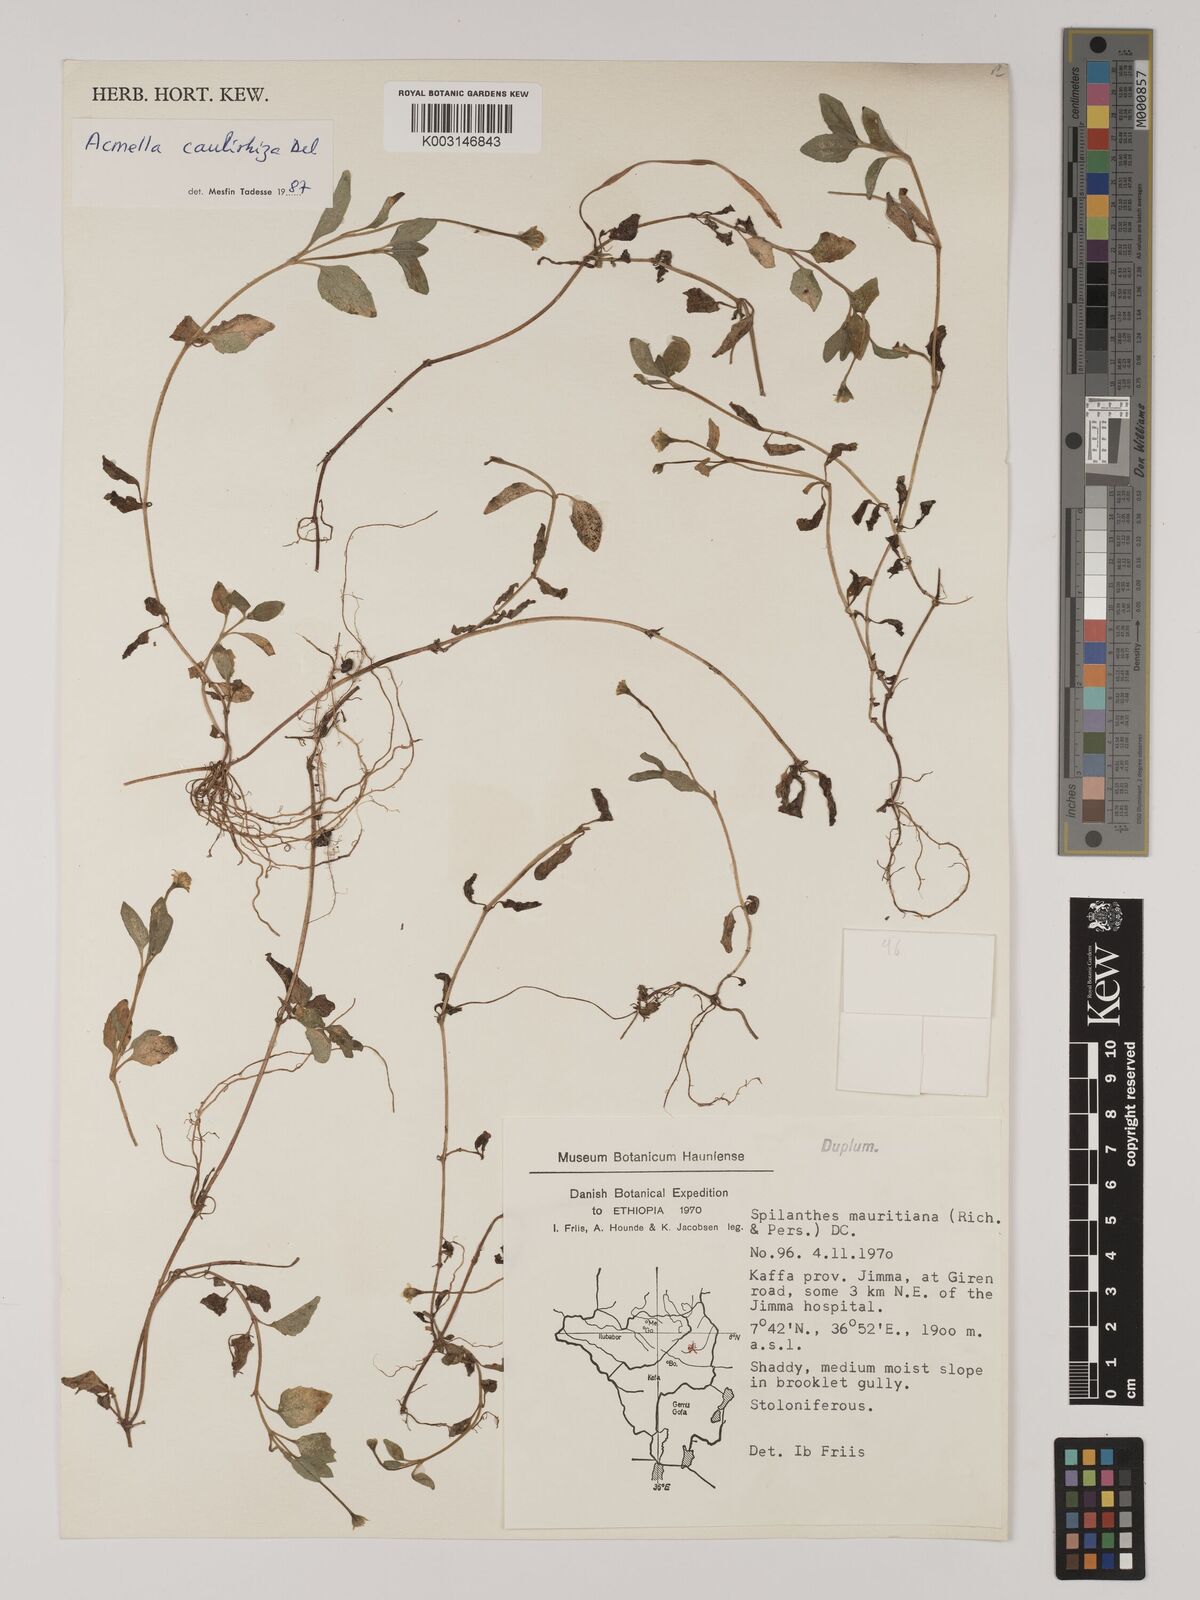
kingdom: Plantae
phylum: Tracheophyta
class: Magnoliopsida
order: Asterales
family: Asteraceae
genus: Acmella
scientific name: Acmella caulirhiza
